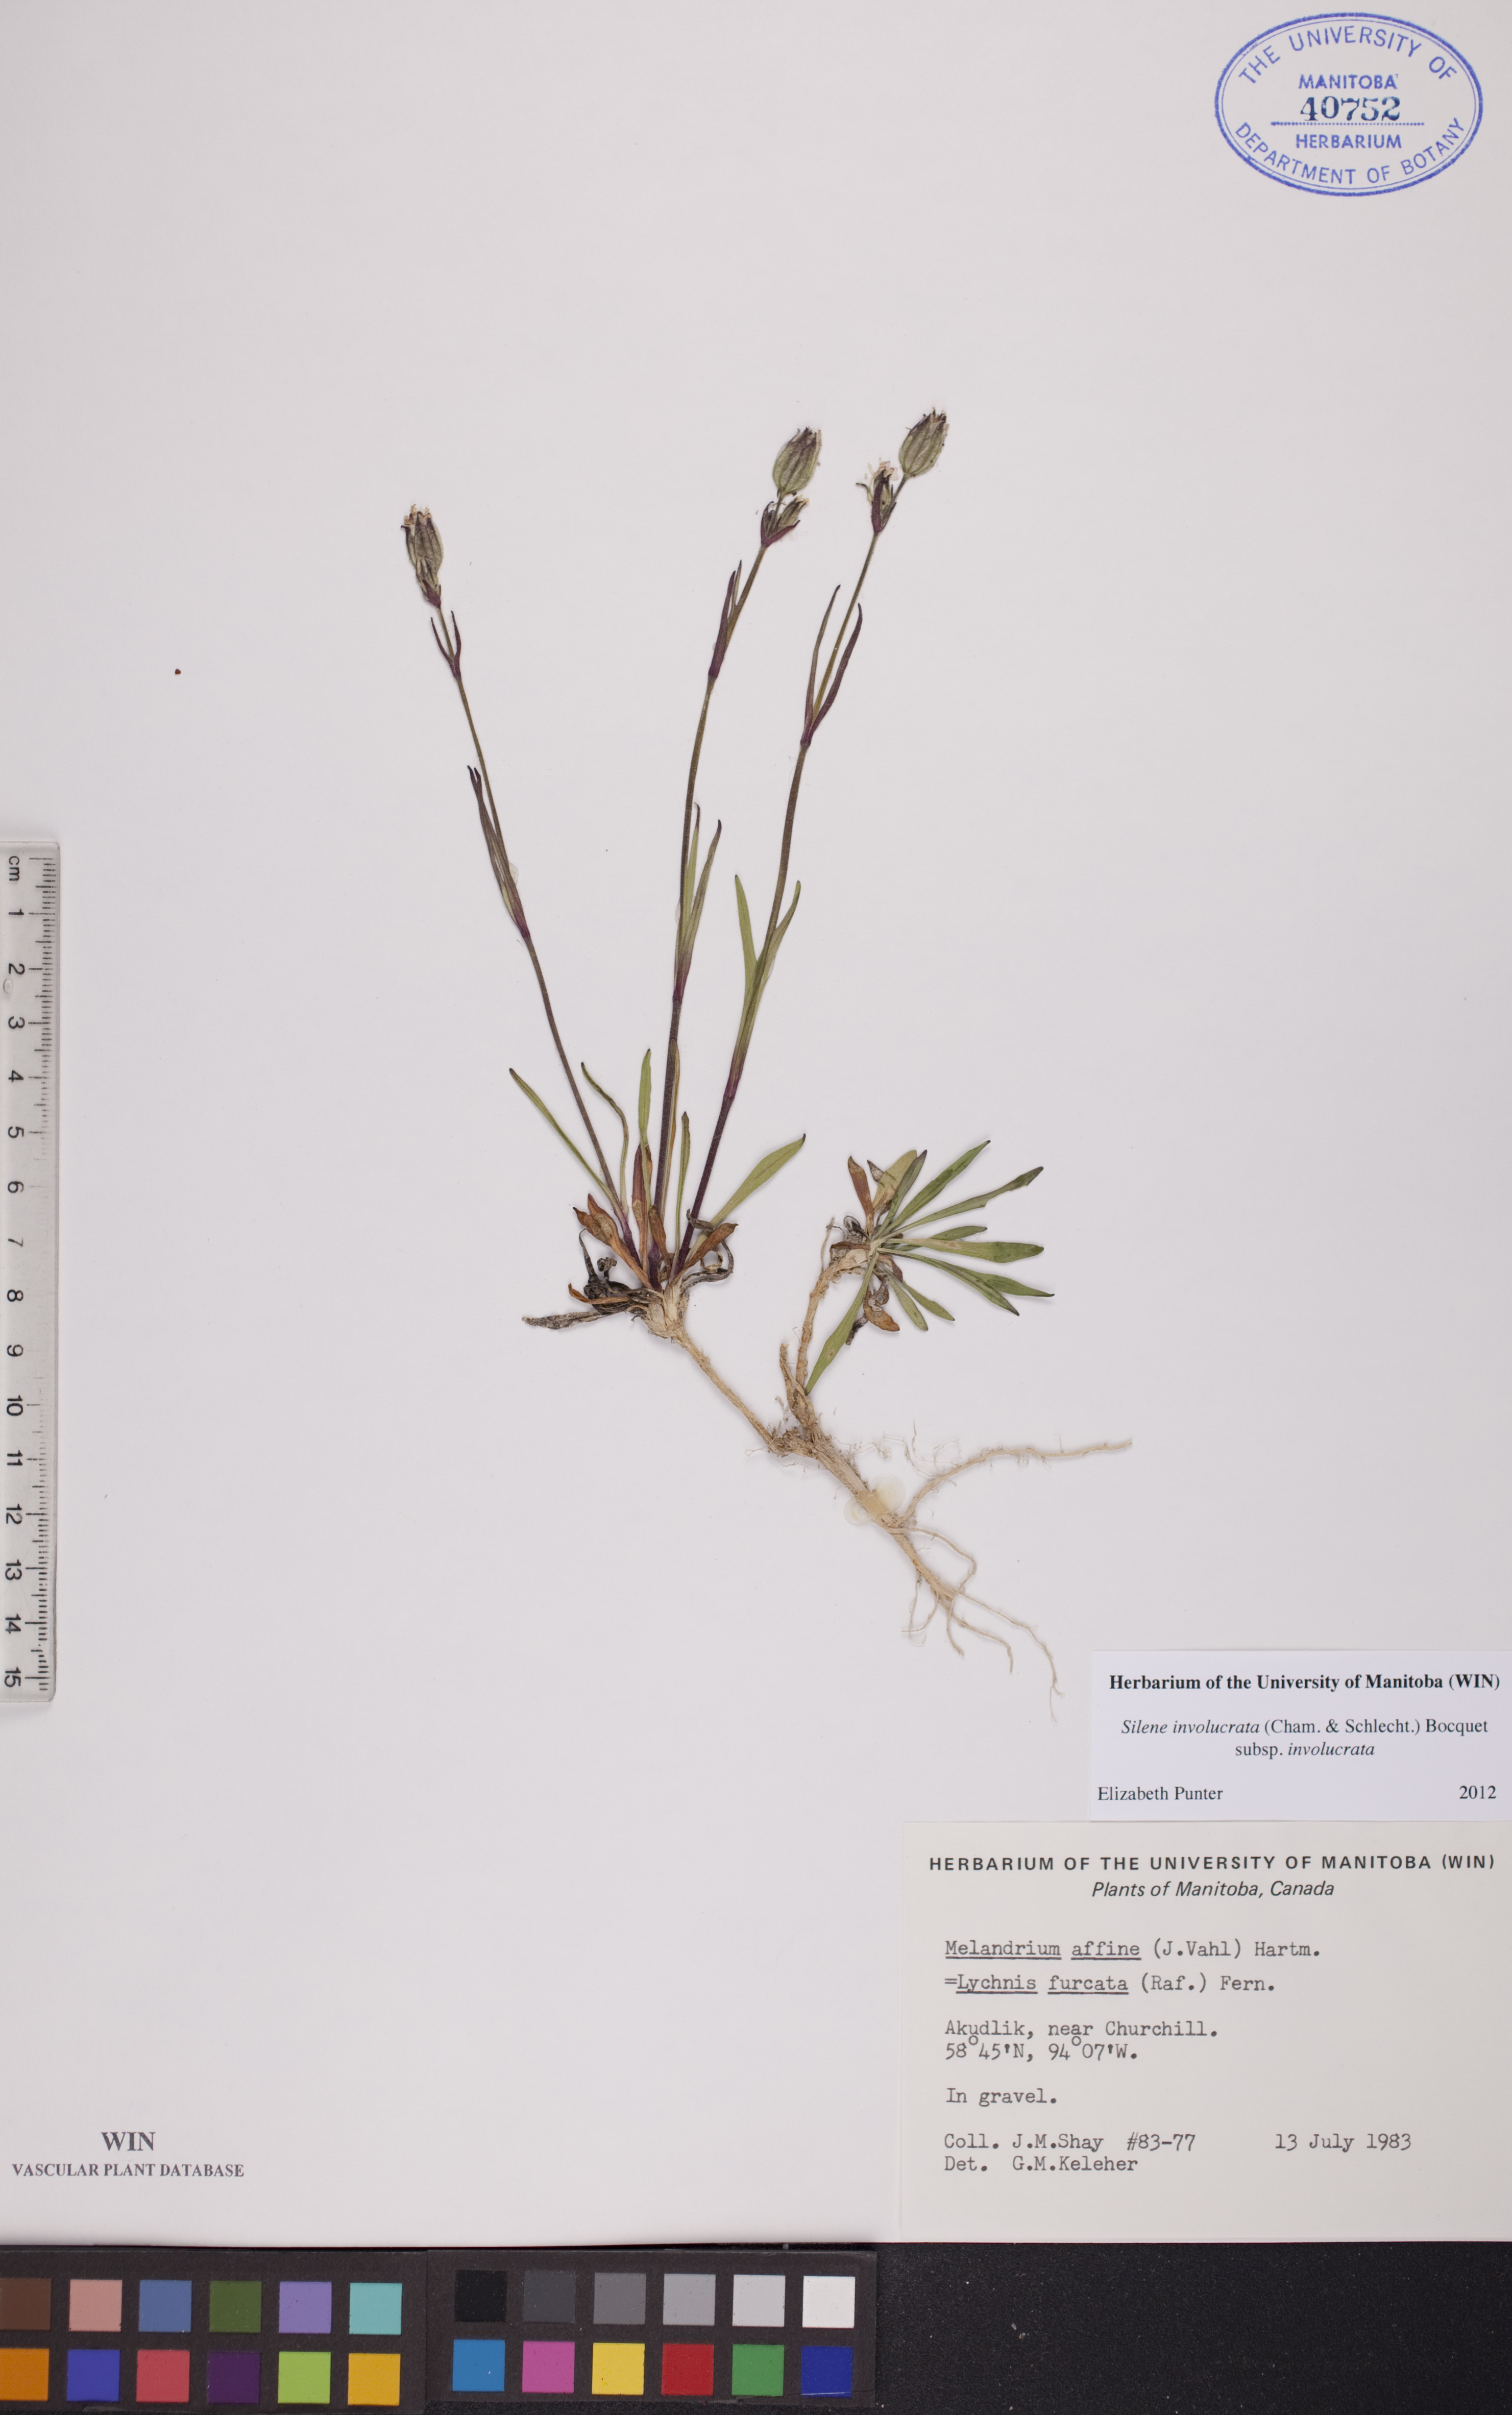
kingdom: Plantae
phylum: Tracheophyta
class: Magnoliopsida
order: Caryophyllales
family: Caryophyllaceae
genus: Silene
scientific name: Silene involucrata
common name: Greater arctic campion
